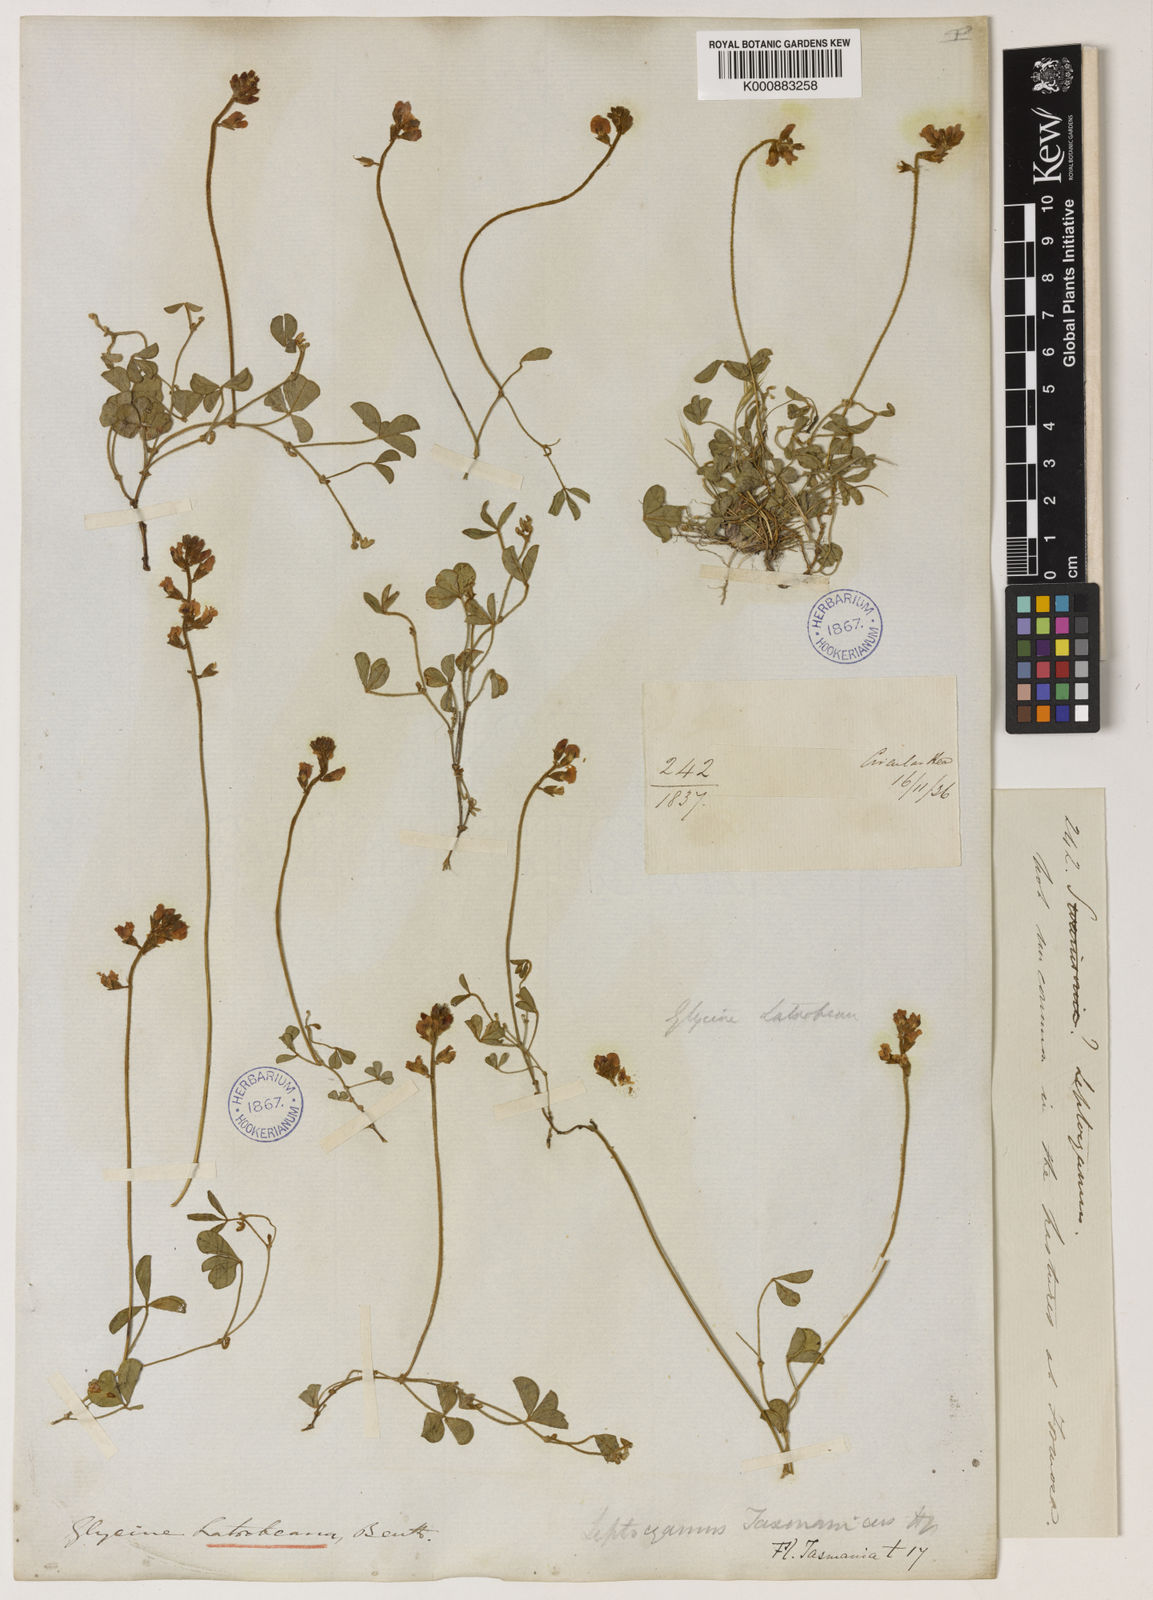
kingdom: Plantae
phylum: Tracheophyta
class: Magnoliopsida
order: Fabales
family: Fabaceae
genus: Glycine
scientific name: Glycine latrobeana
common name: Clover glycine
